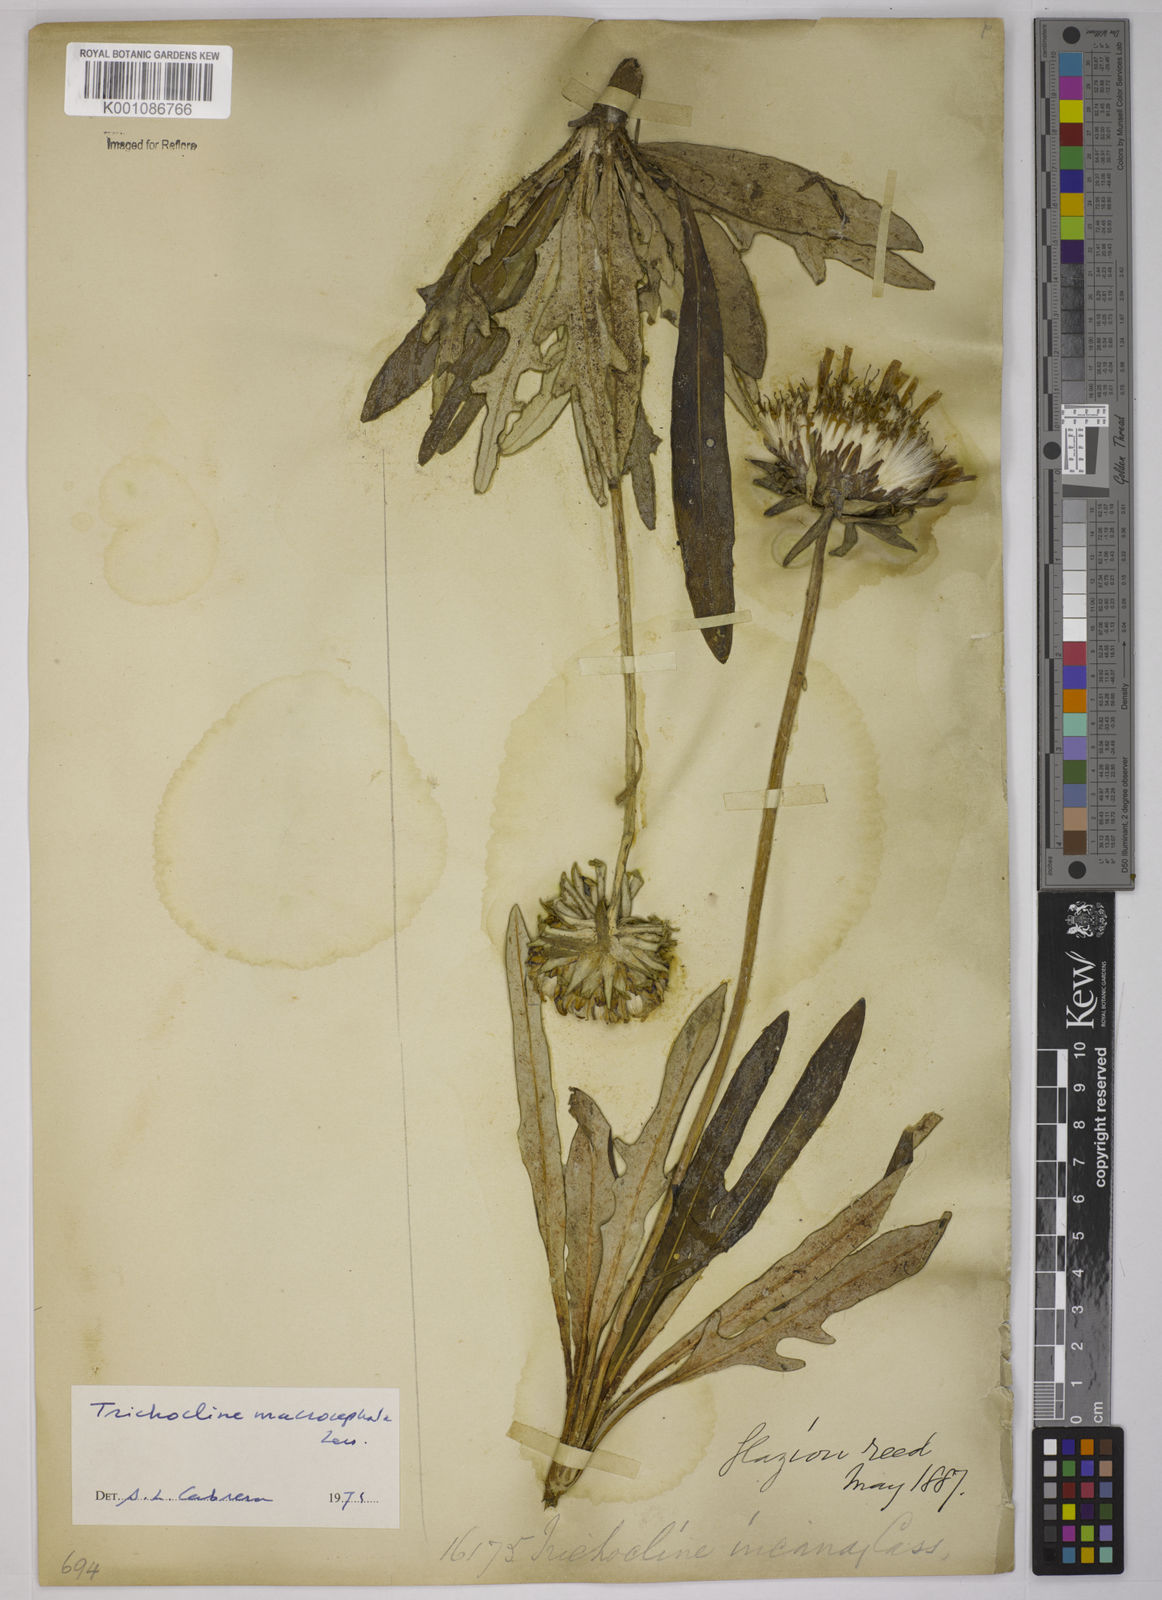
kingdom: Plantae
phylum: Tracheophyta
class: Magnoliopsida
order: Asterales
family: Asteraceae
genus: Trichocline
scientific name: Trichocline macrocephala
